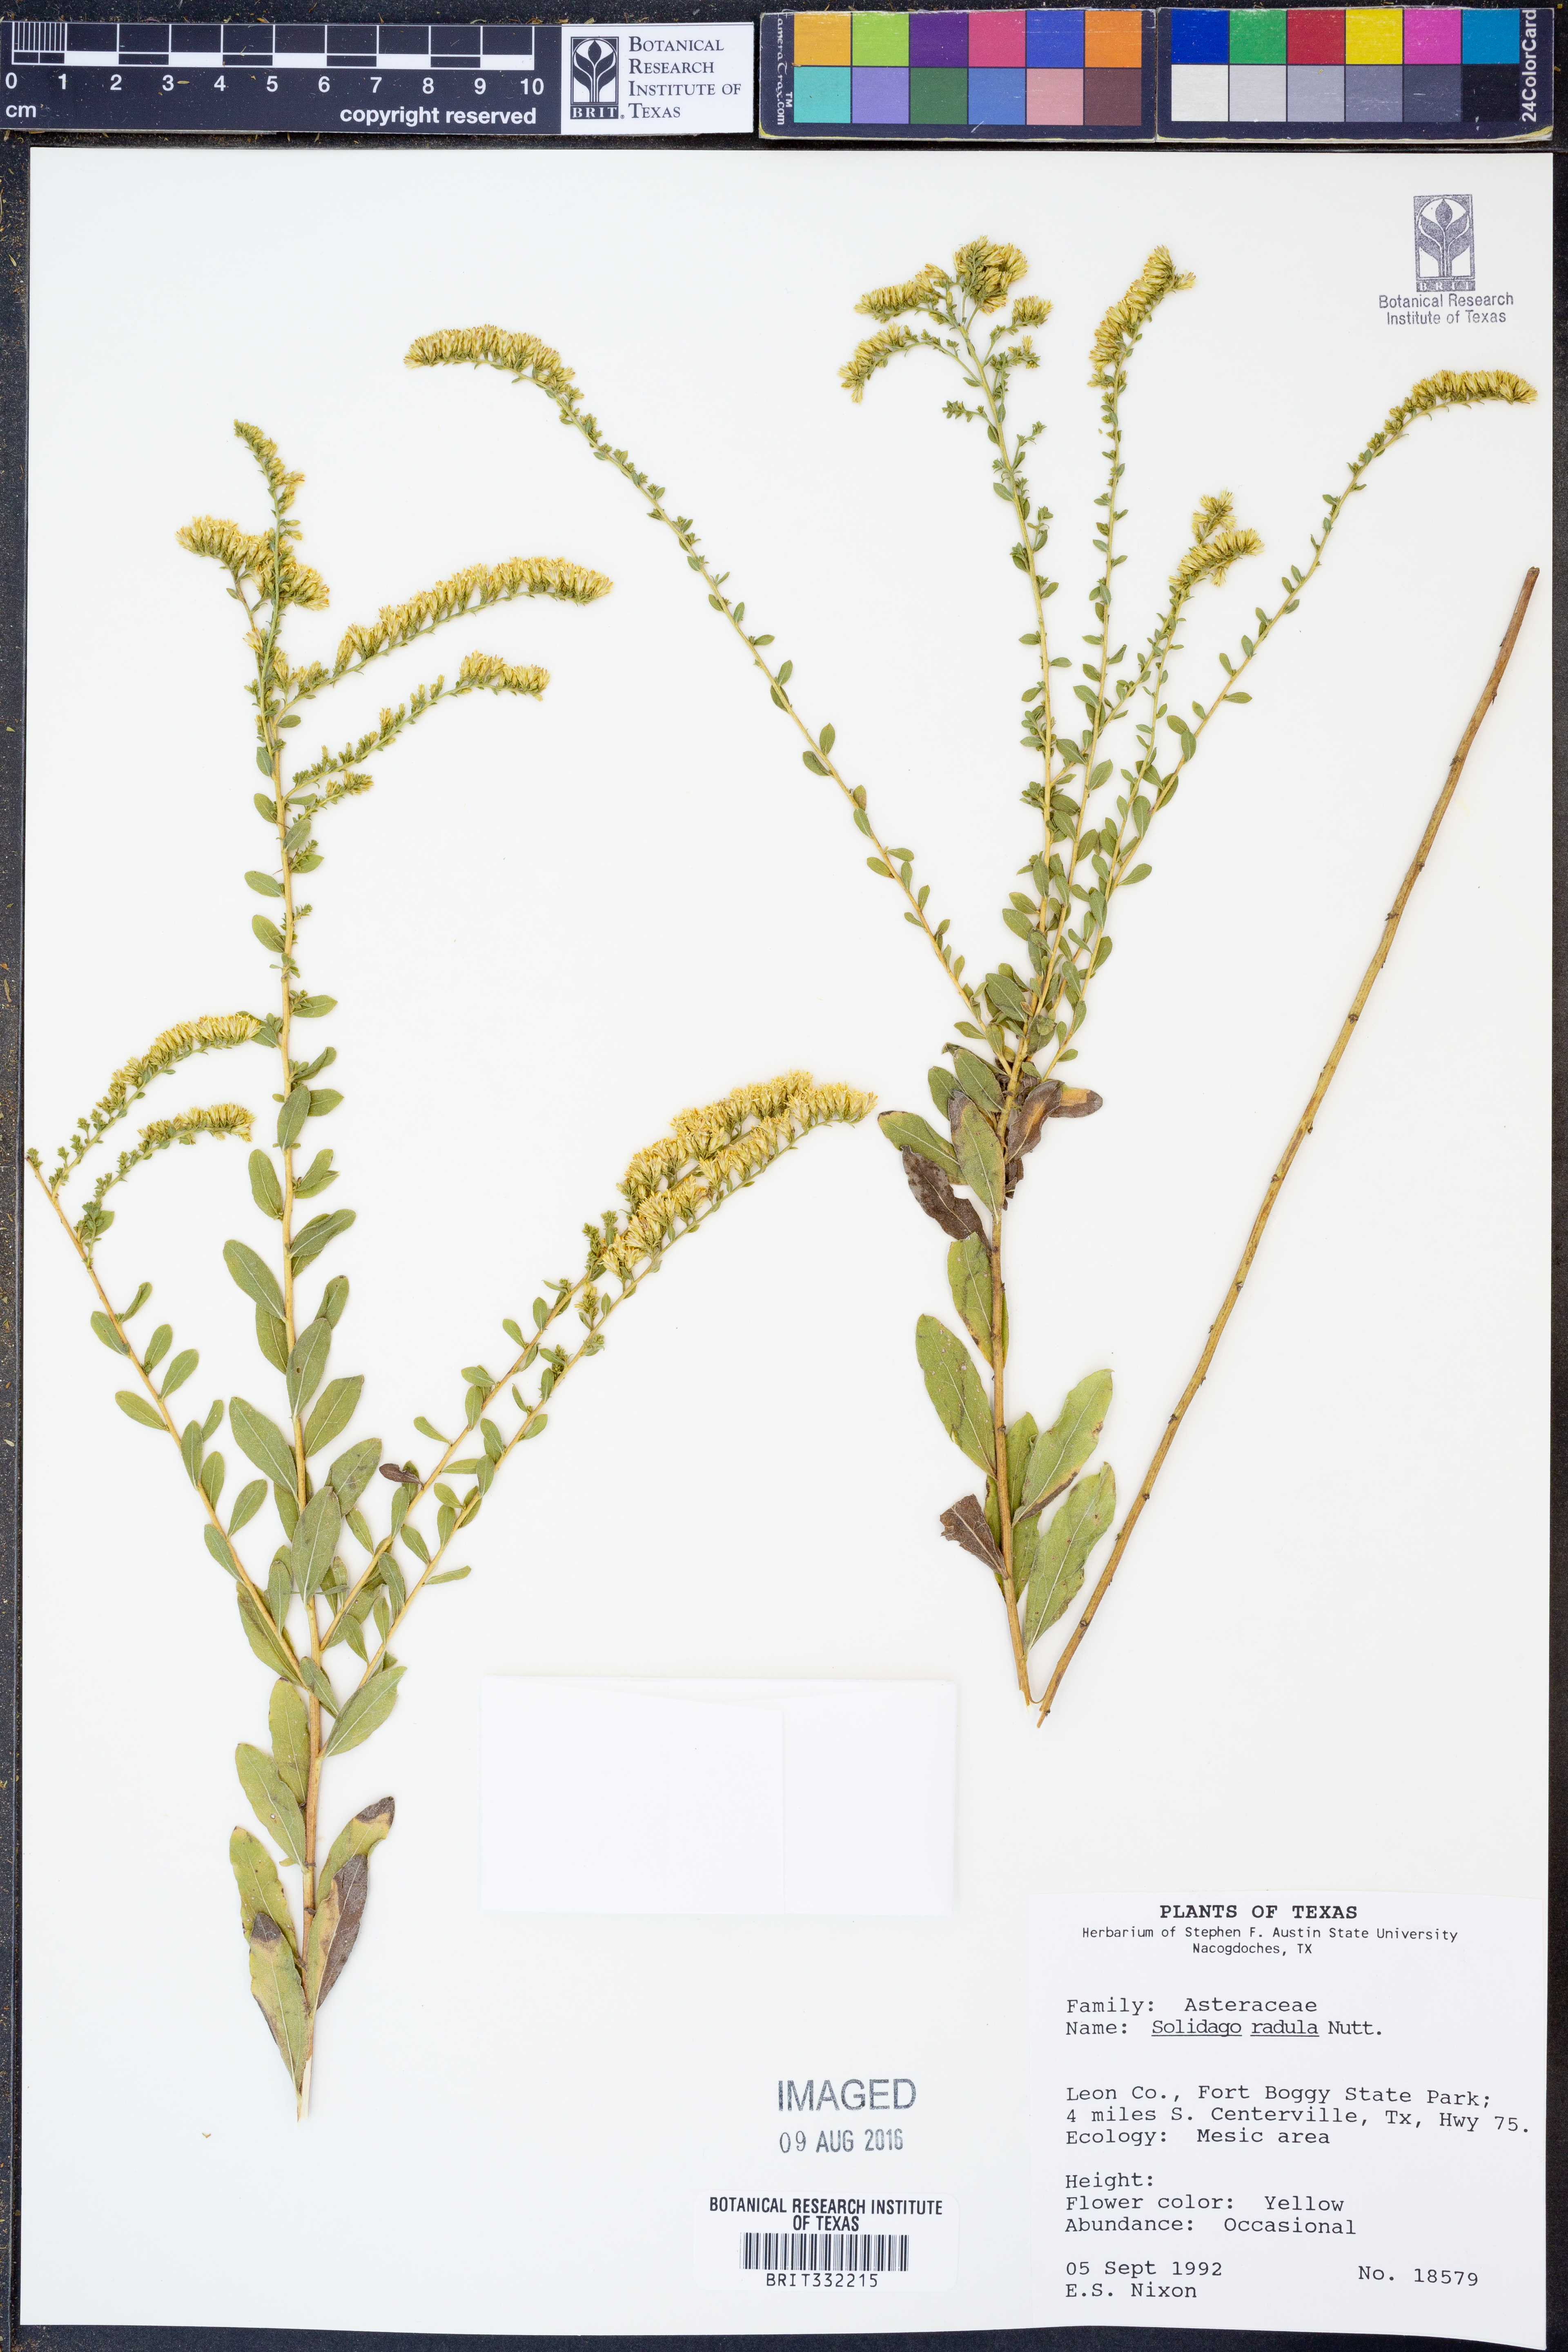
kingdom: Plantae
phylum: Tracheophyta
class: Magnoliopsida
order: Asterales
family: Asteraceae
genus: Solidago
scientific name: Solidago radula
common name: Western rough goldenrod
